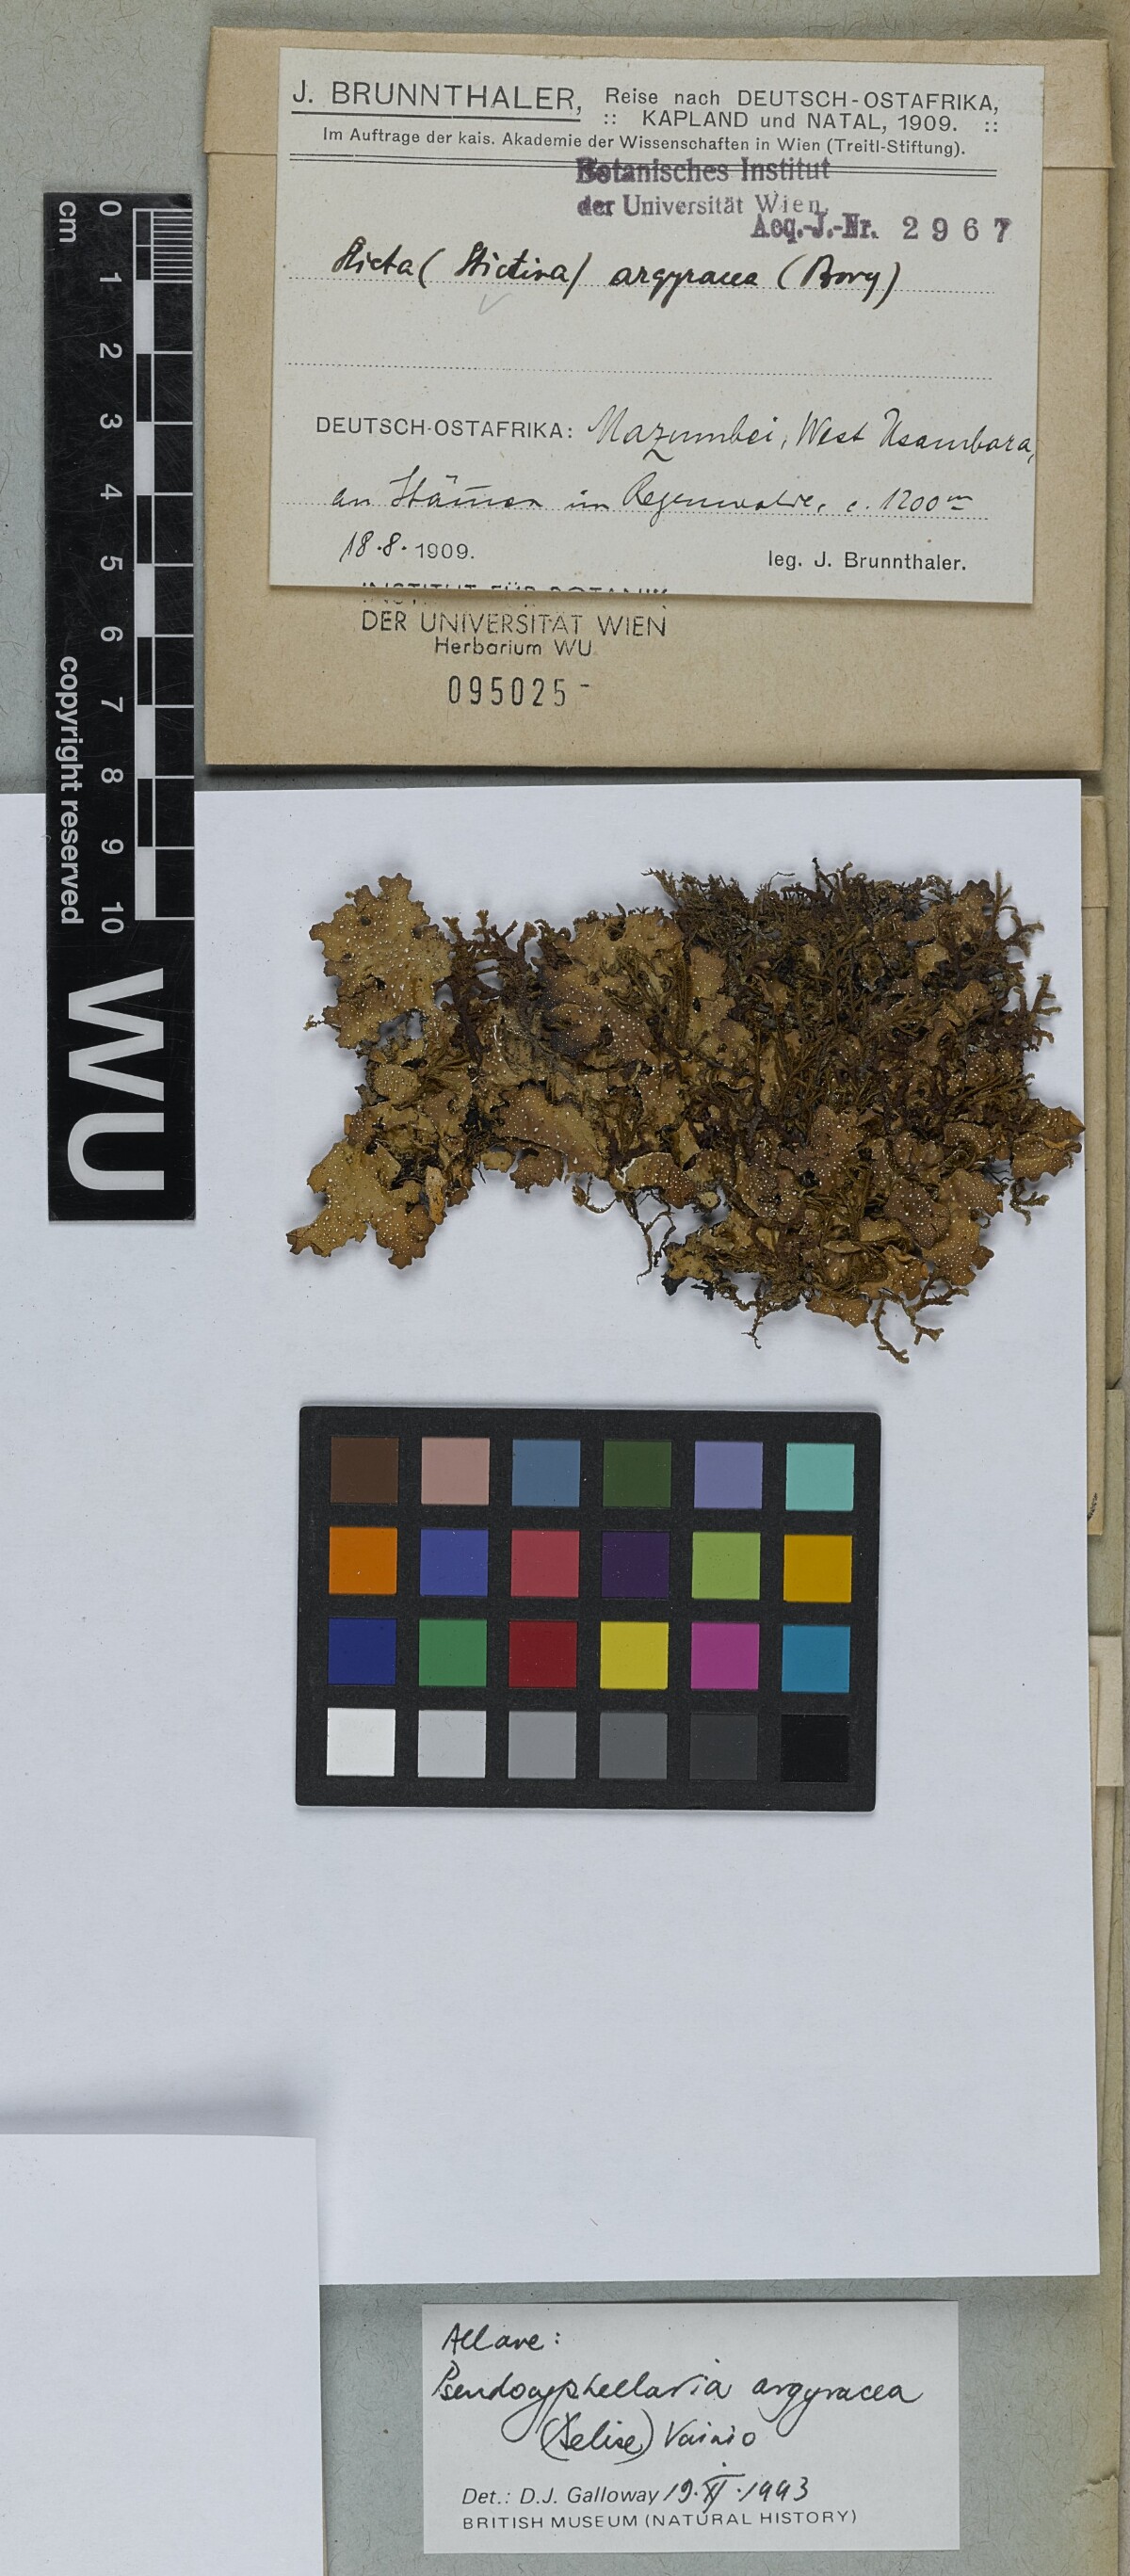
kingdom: Fungi
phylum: Ascomycota
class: Lecanoromycetes
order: Peltigerales
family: Lobariaceae
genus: Pseudocyphellaria
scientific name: Pseudocyphellaria argyracea
